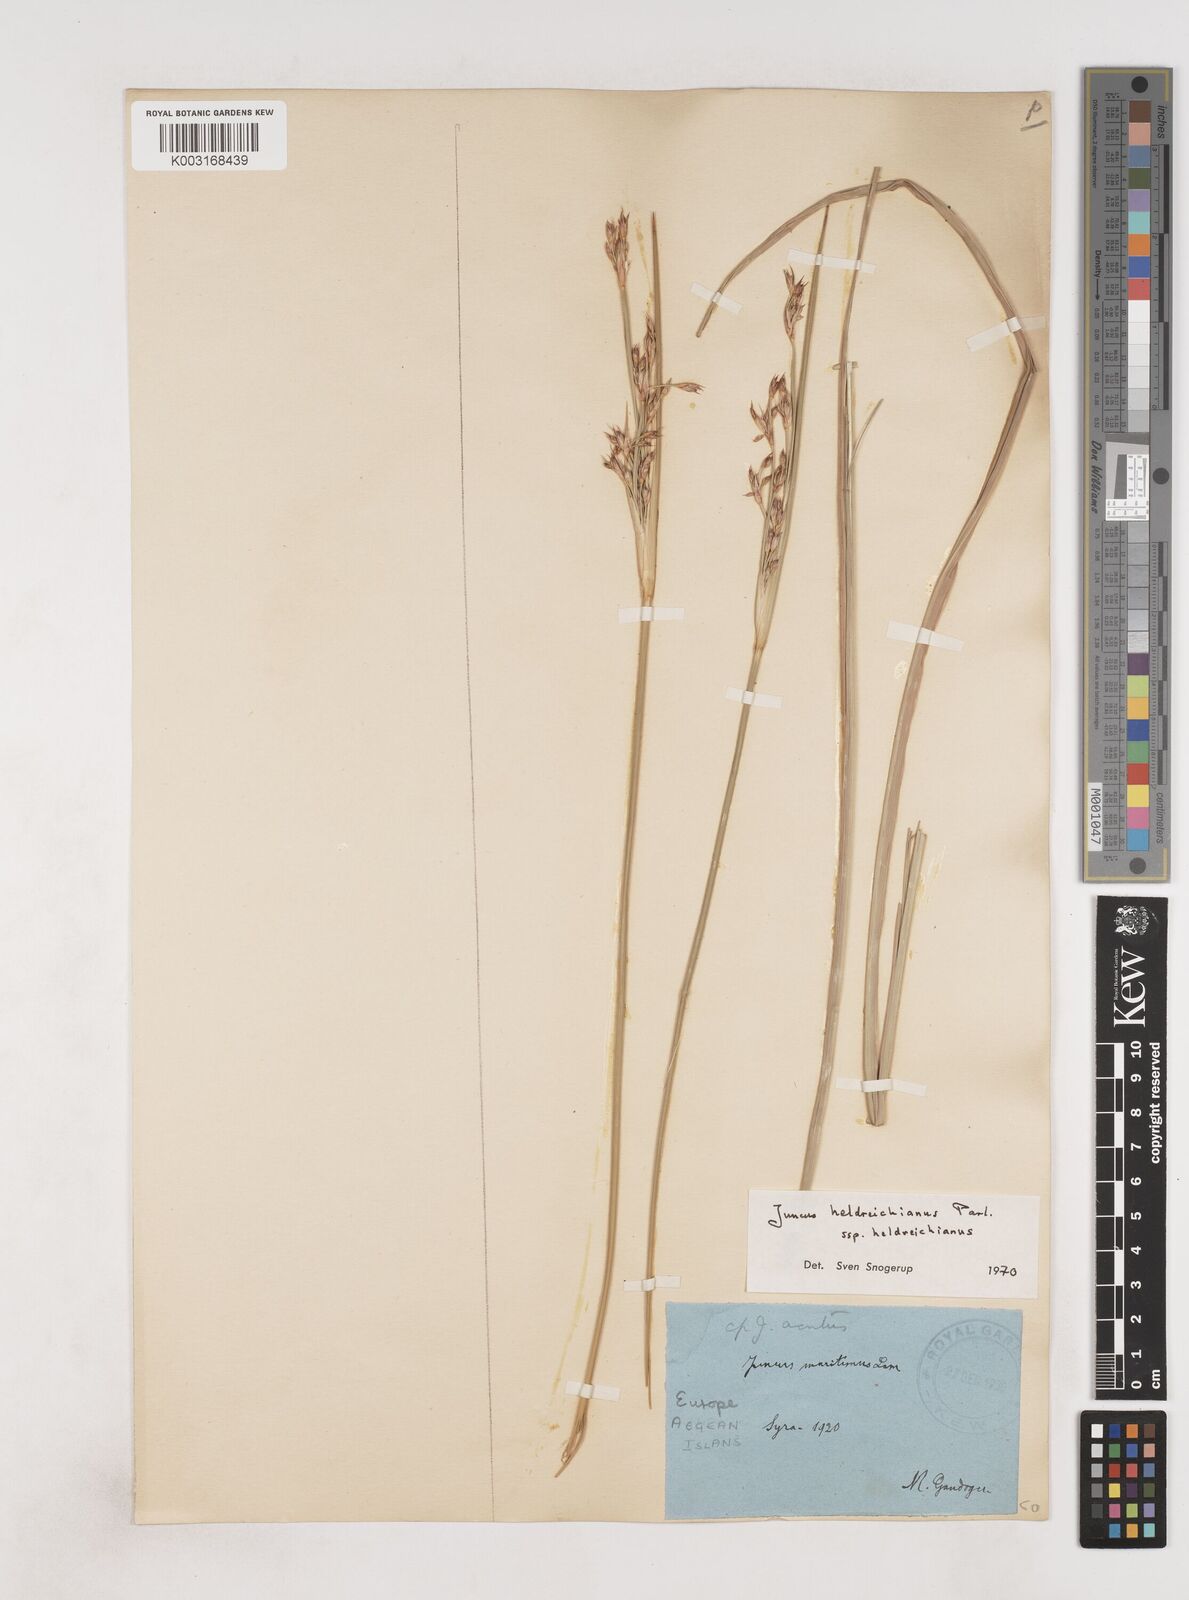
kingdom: Plantae
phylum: Tracheophyta
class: Liliopsida
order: Poales
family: Juncaceae
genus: Juncus
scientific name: Juncus heldreichianus
